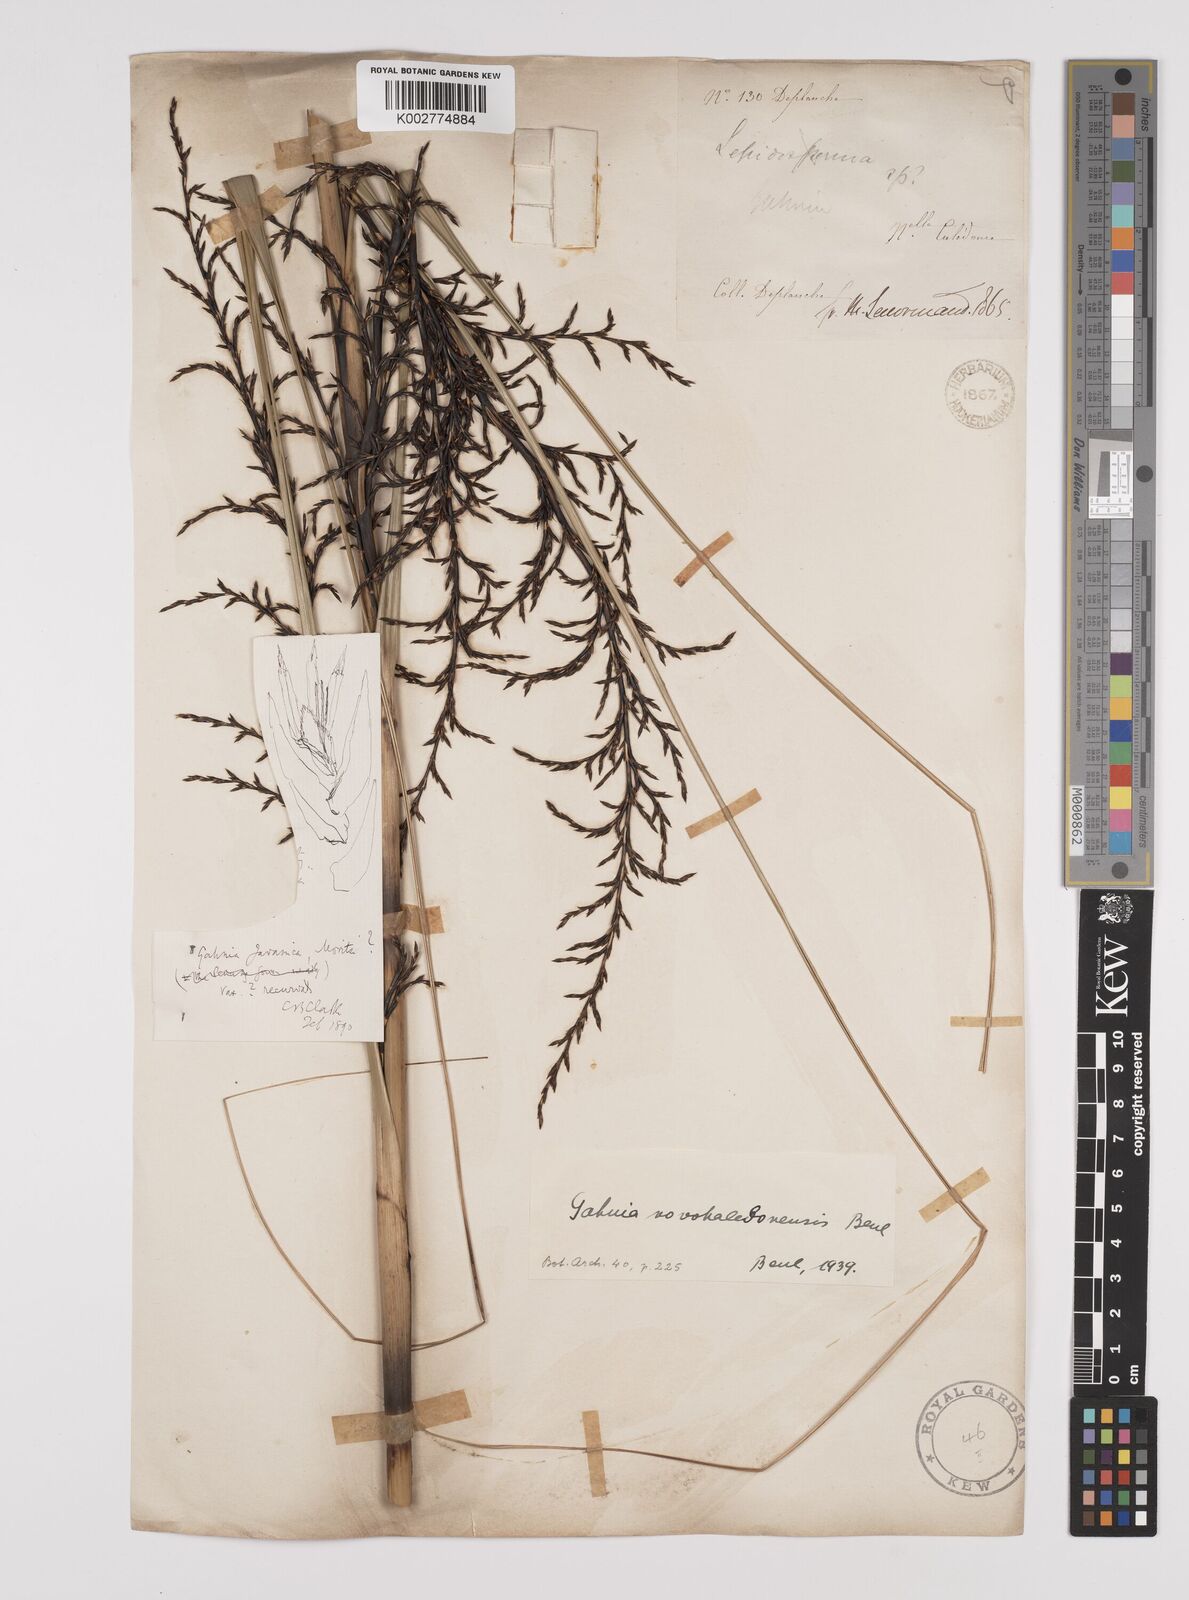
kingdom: Plantae
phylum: Tracheophyta
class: Liliopsida
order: Poales
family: Cyperaceae
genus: Gahnia
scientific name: Gahnia novocaledonensis
